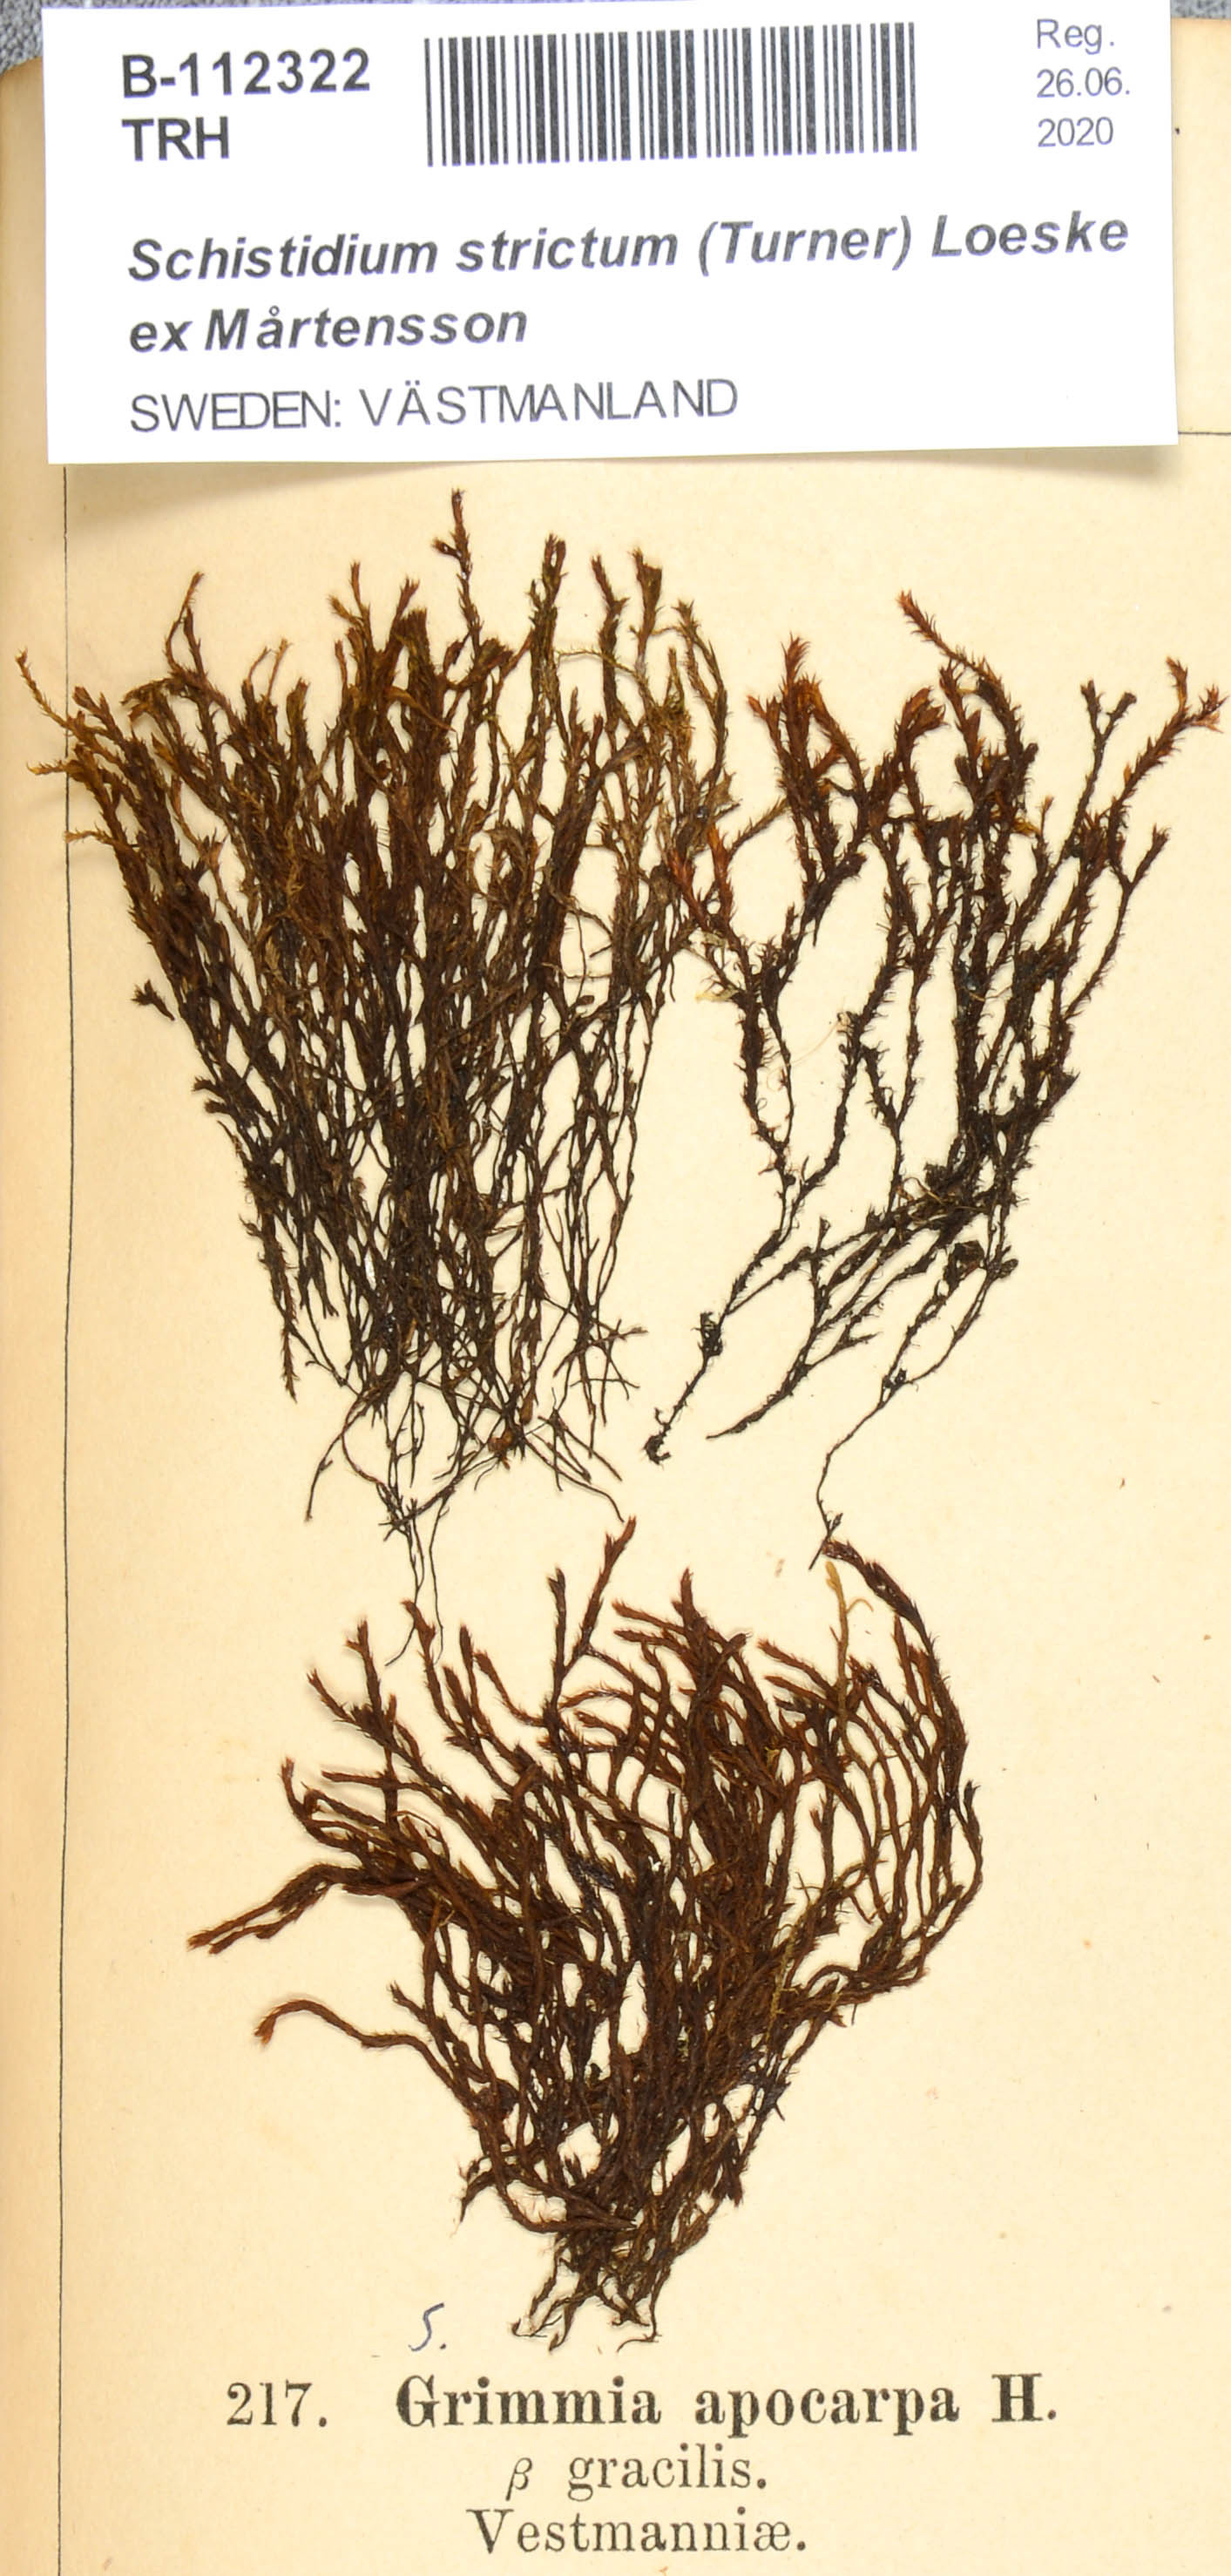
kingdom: Plantae
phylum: Bryophyta
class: Bryopsida
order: Grimmiales
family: Grimmiaceae
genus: Schistidium
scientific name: Schistidium strictum
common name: Upright brown grimmia
